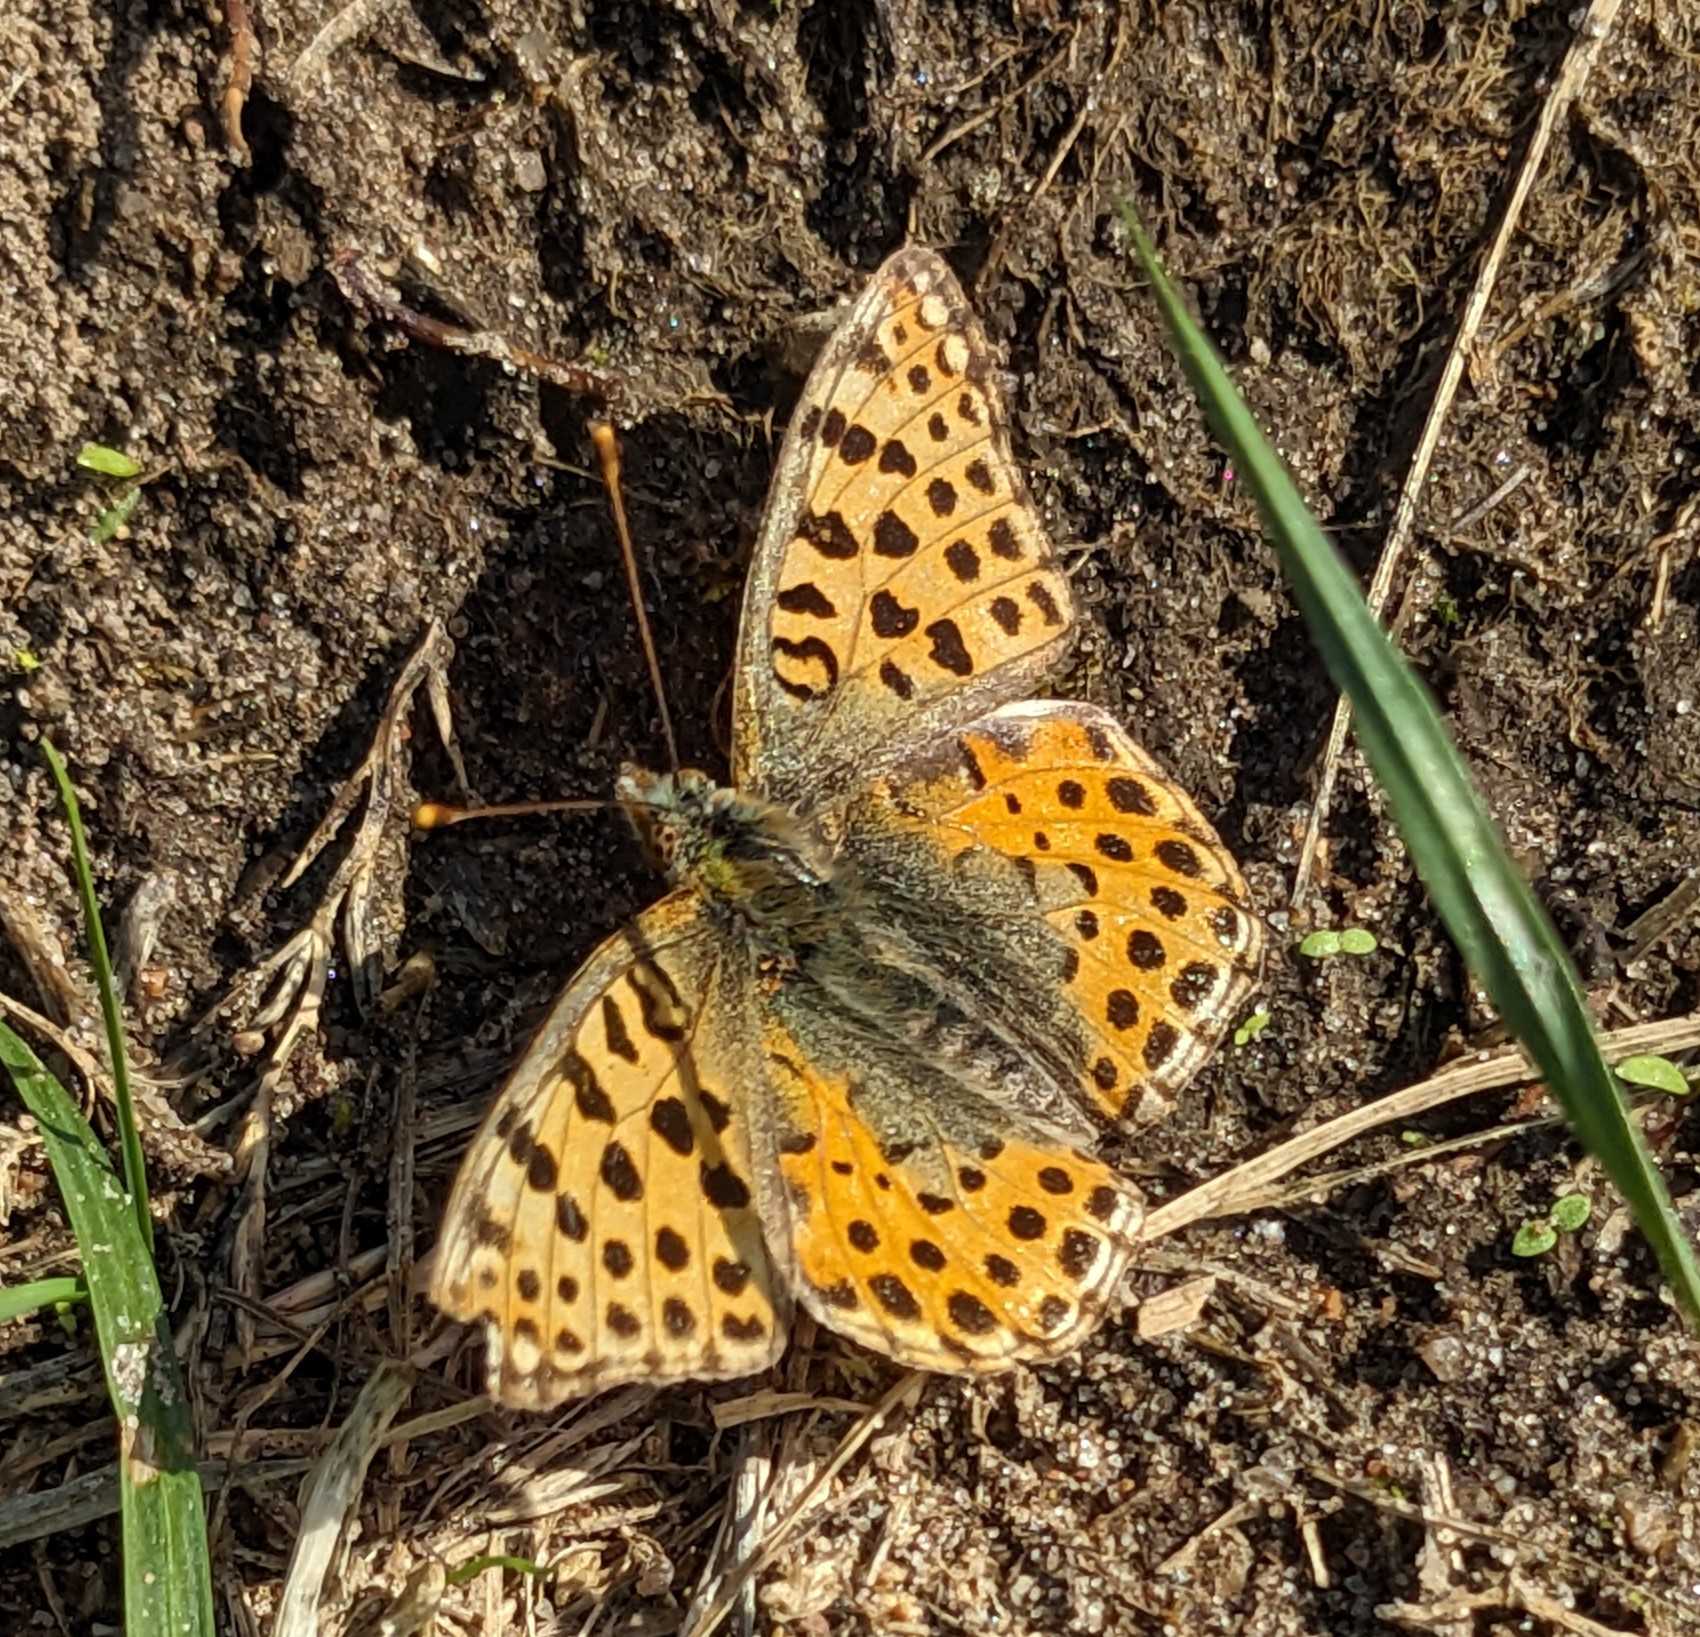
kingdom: Animalia
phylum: Arthropoda
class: Insecta
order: Lepidoptera
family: Nymphalidae
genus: Issoria
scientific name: Issoria lathonia
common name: Storplettet perlemorsommerfugl
